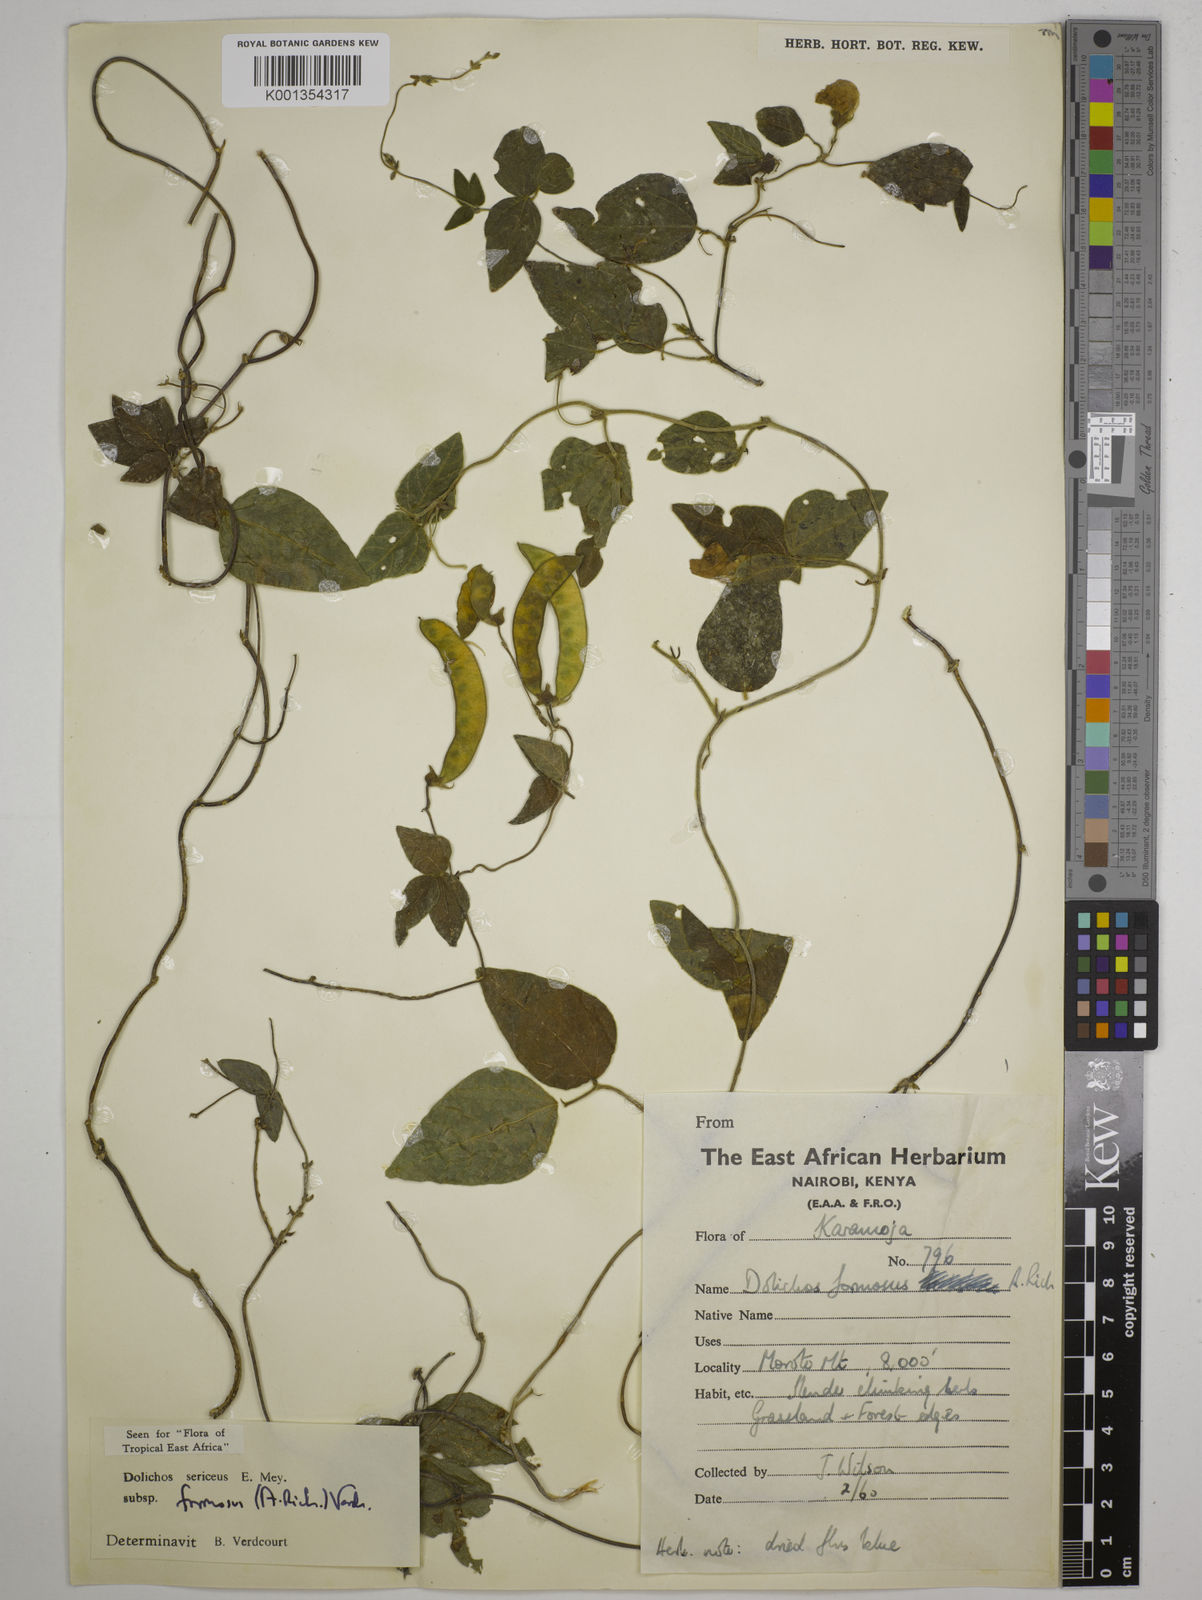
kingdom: Plantae
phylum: Tracheophyta
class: Magnoliopsida
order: Fabales
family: Fabaceae
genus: Dolichos
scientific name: Dolichos
